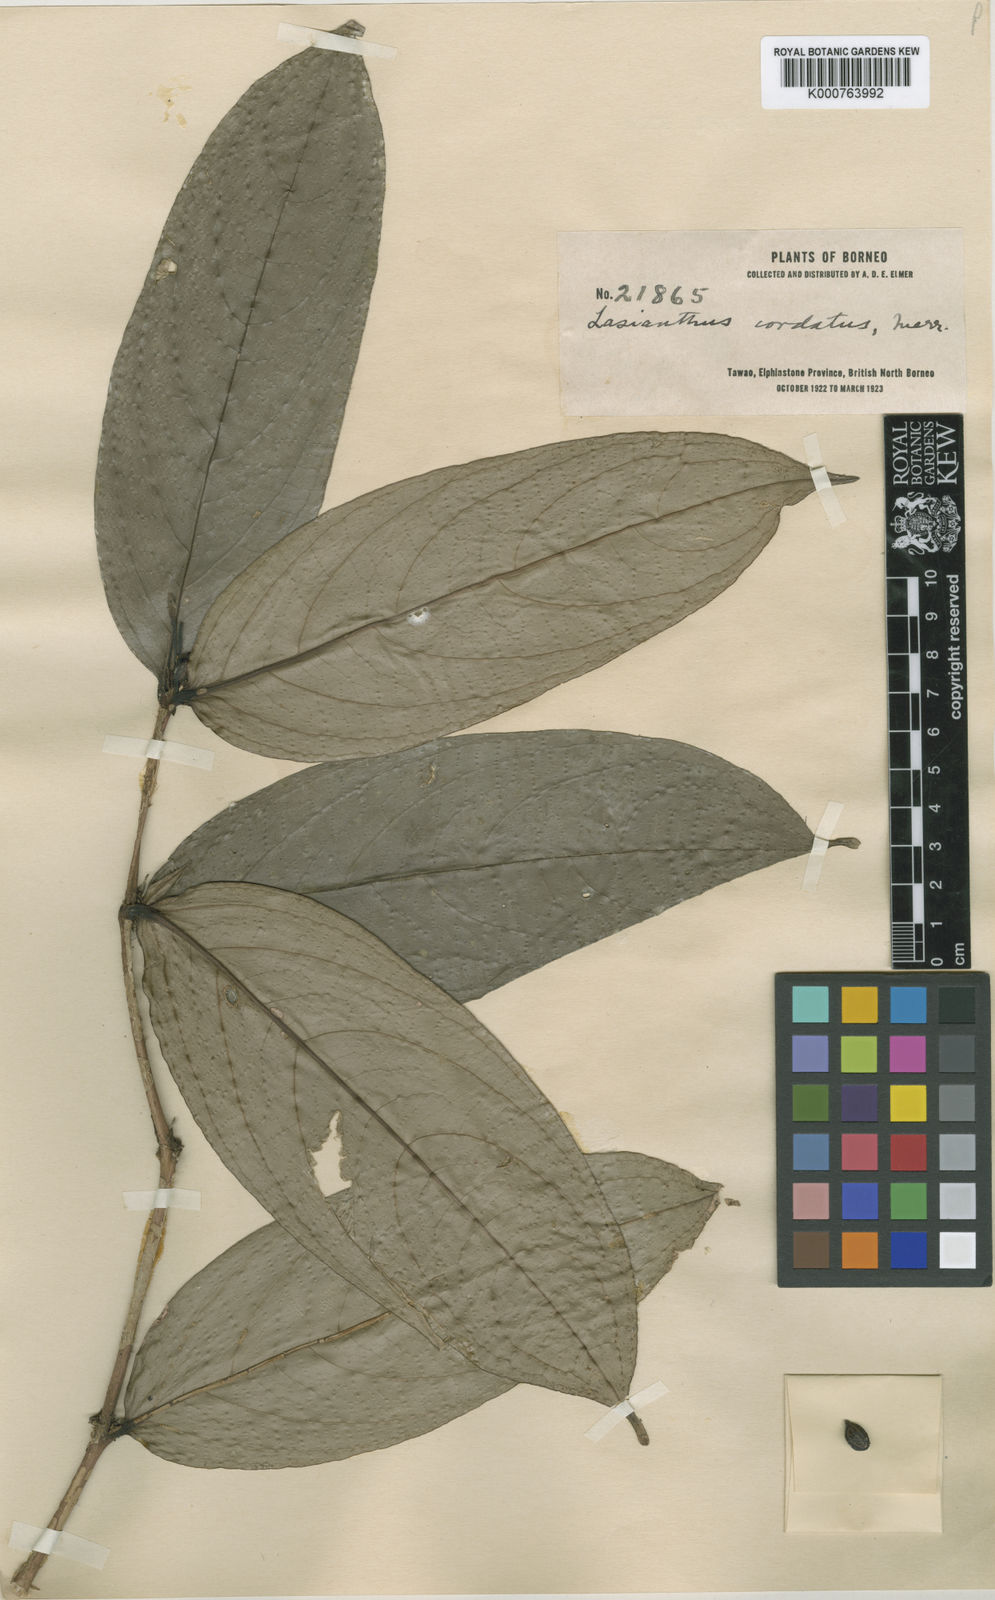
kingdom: Plantae
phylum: Tracheophyta
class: Magnoliopsida
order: Gentianales
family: Rubiaceae
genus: Lasianthus
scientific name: Lasianthus cordatus
